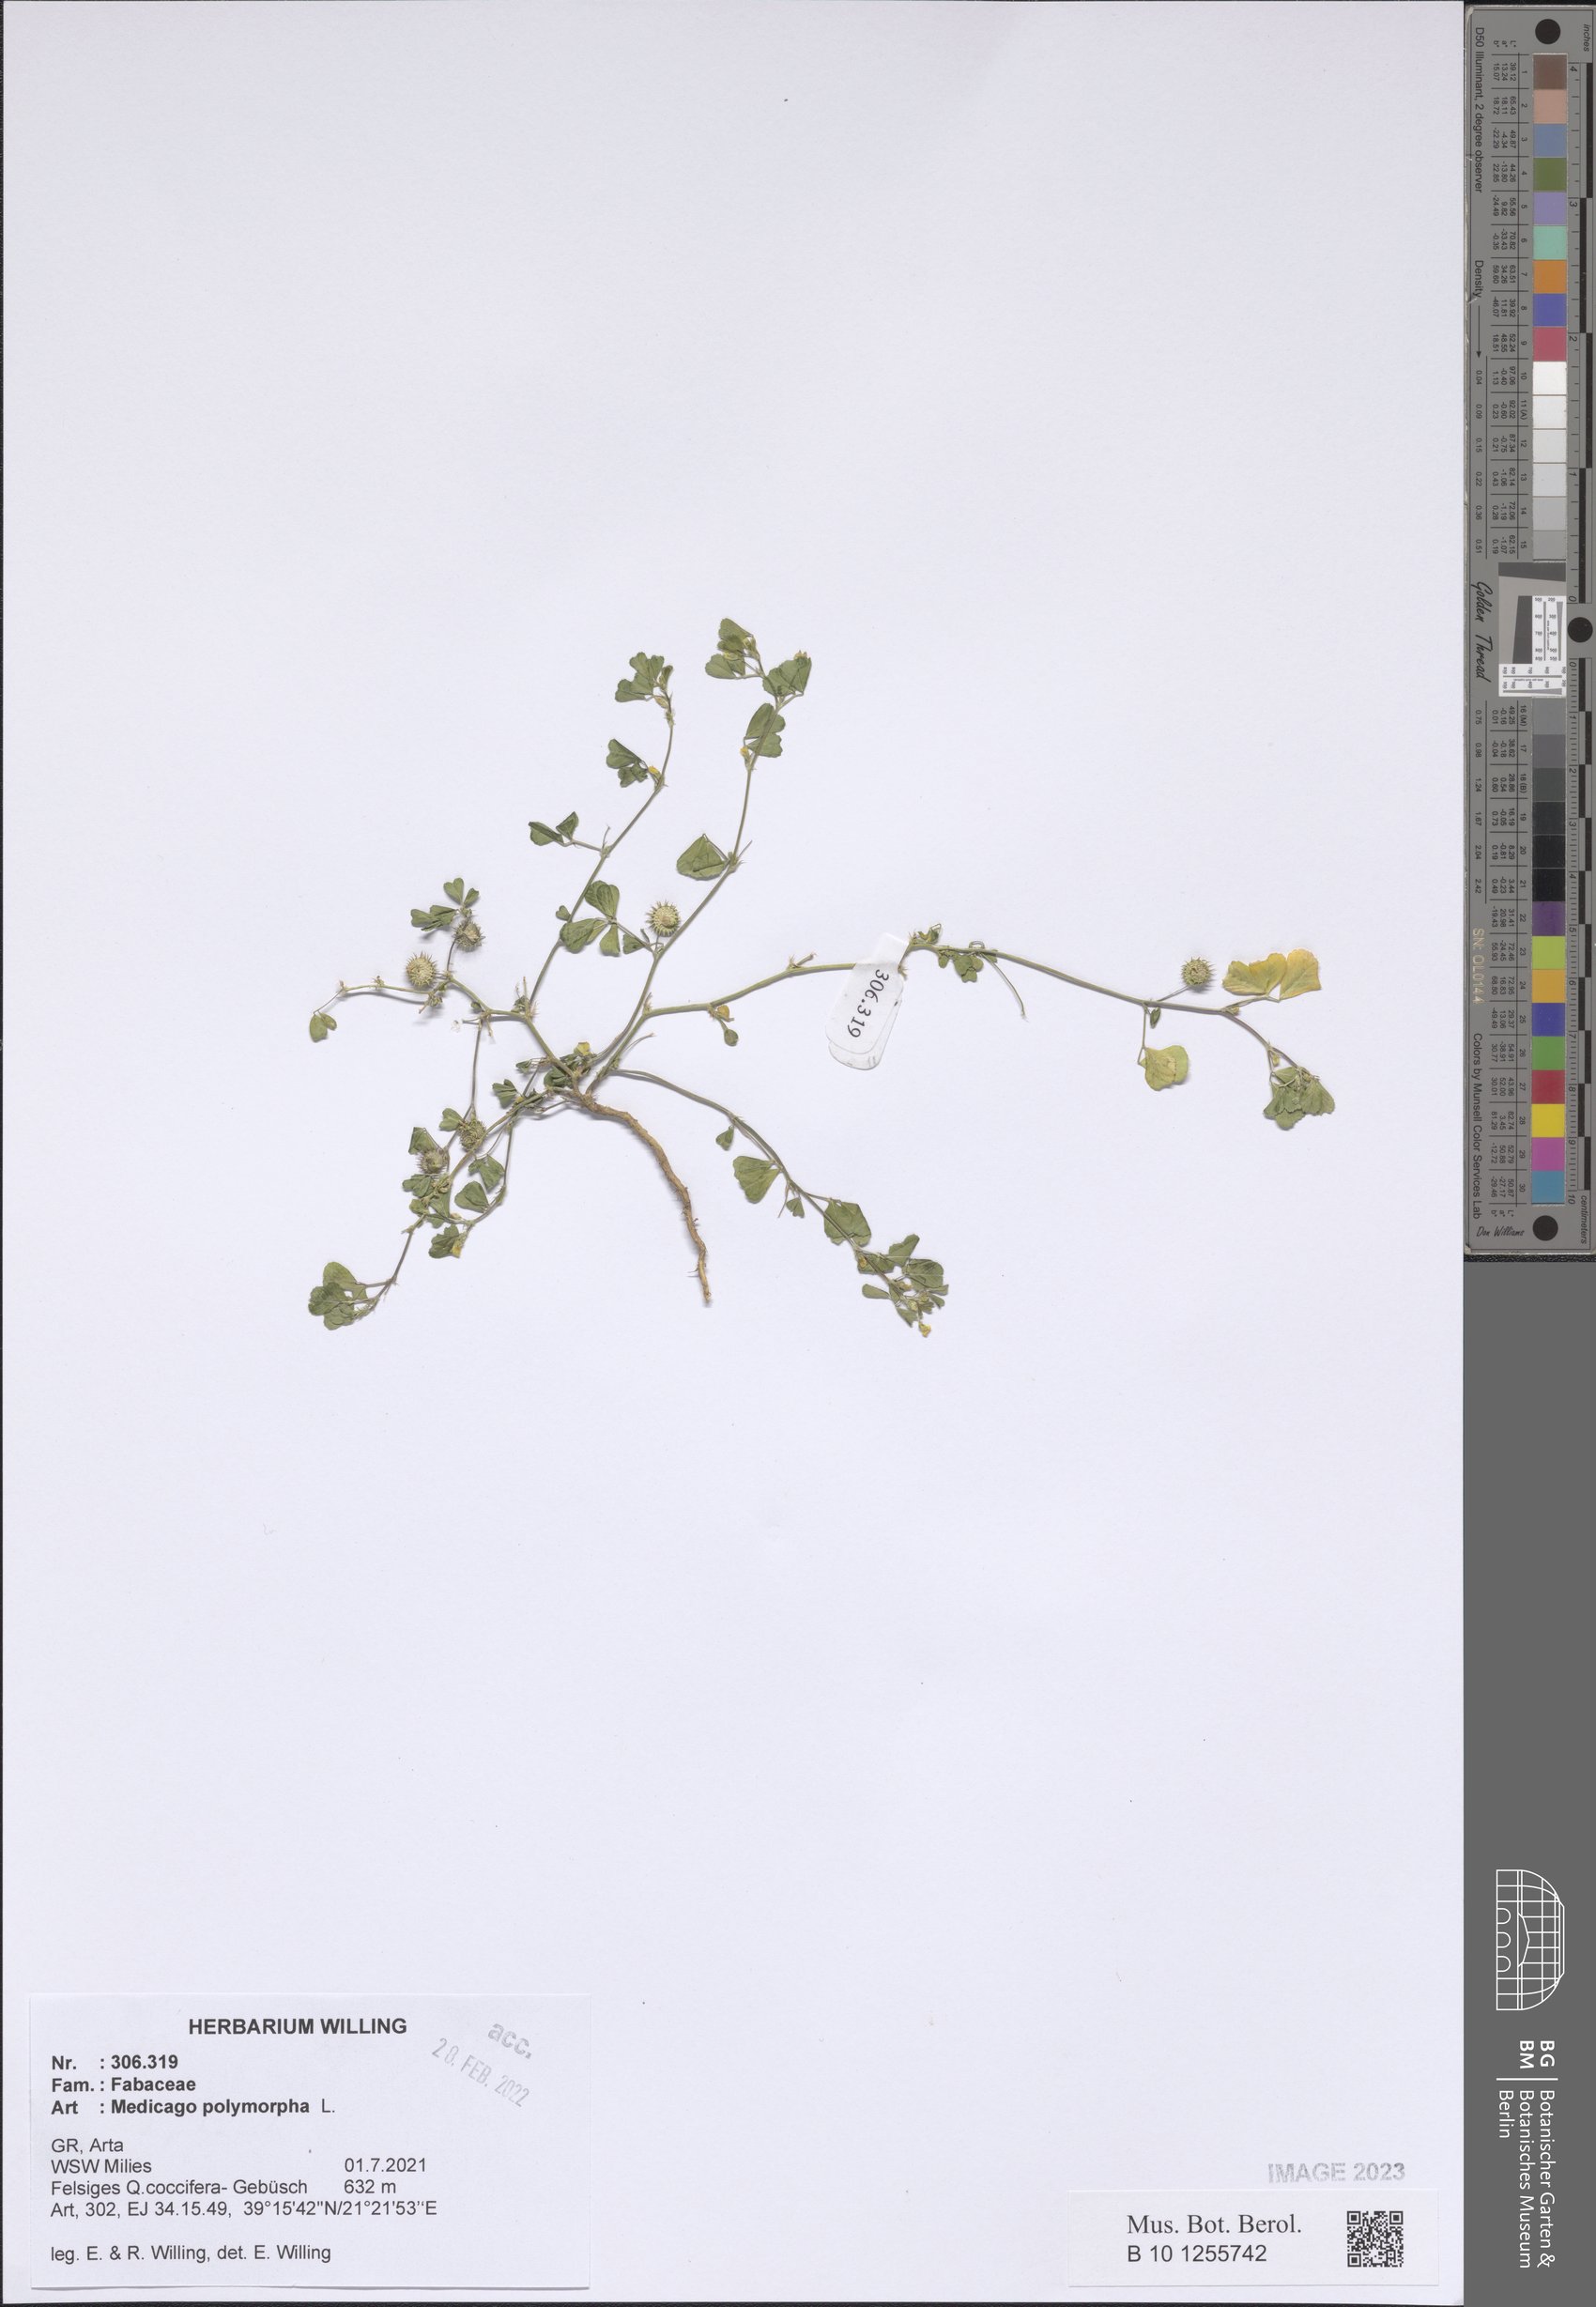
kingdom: Plantae
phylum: Tracheophyta
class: Magnoliopsida
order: Fabales
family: Fabaceae
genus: Medicago
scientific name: Medicago polymorpha
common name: Burclover
